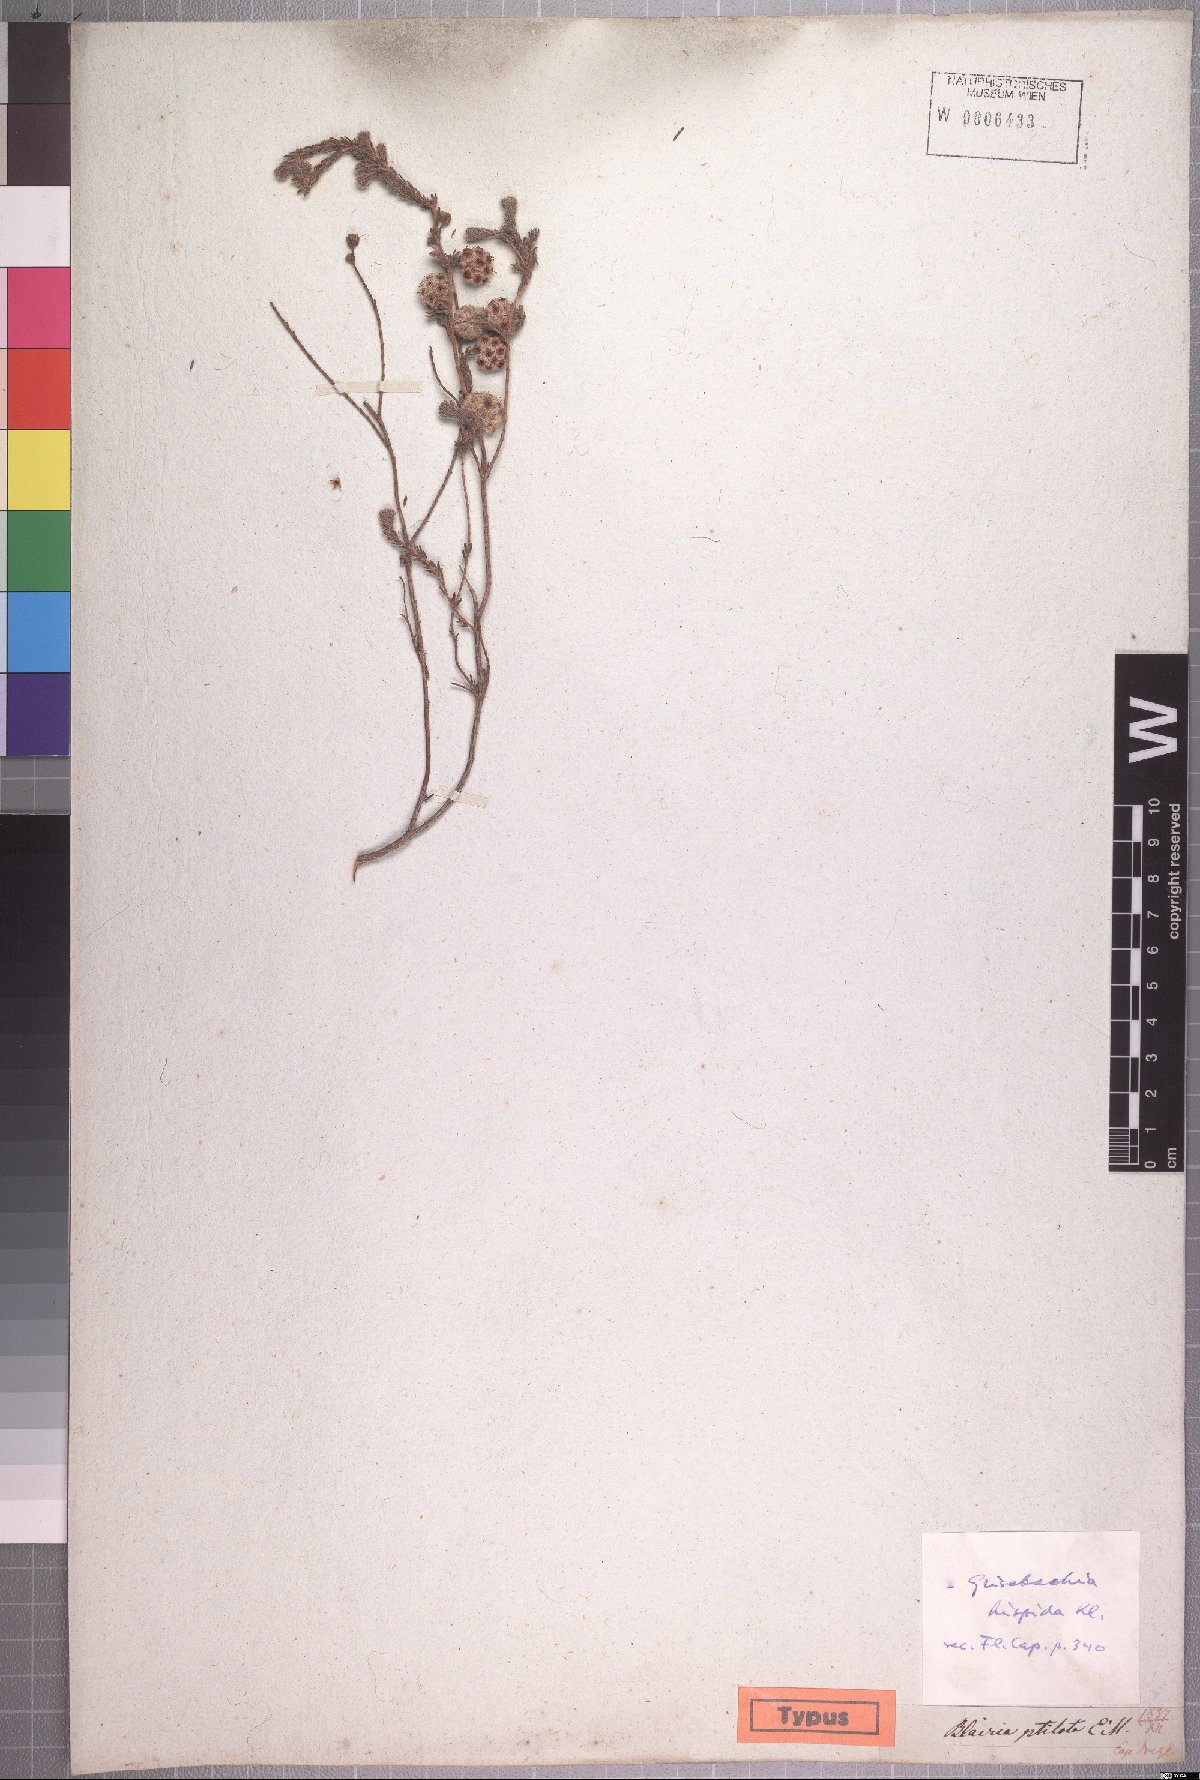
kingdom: Plantae
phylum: Tracheophyta
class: Magnoliopsida
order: Ericales
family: Ericaceae
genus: Erica
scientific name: Erica plumosa
